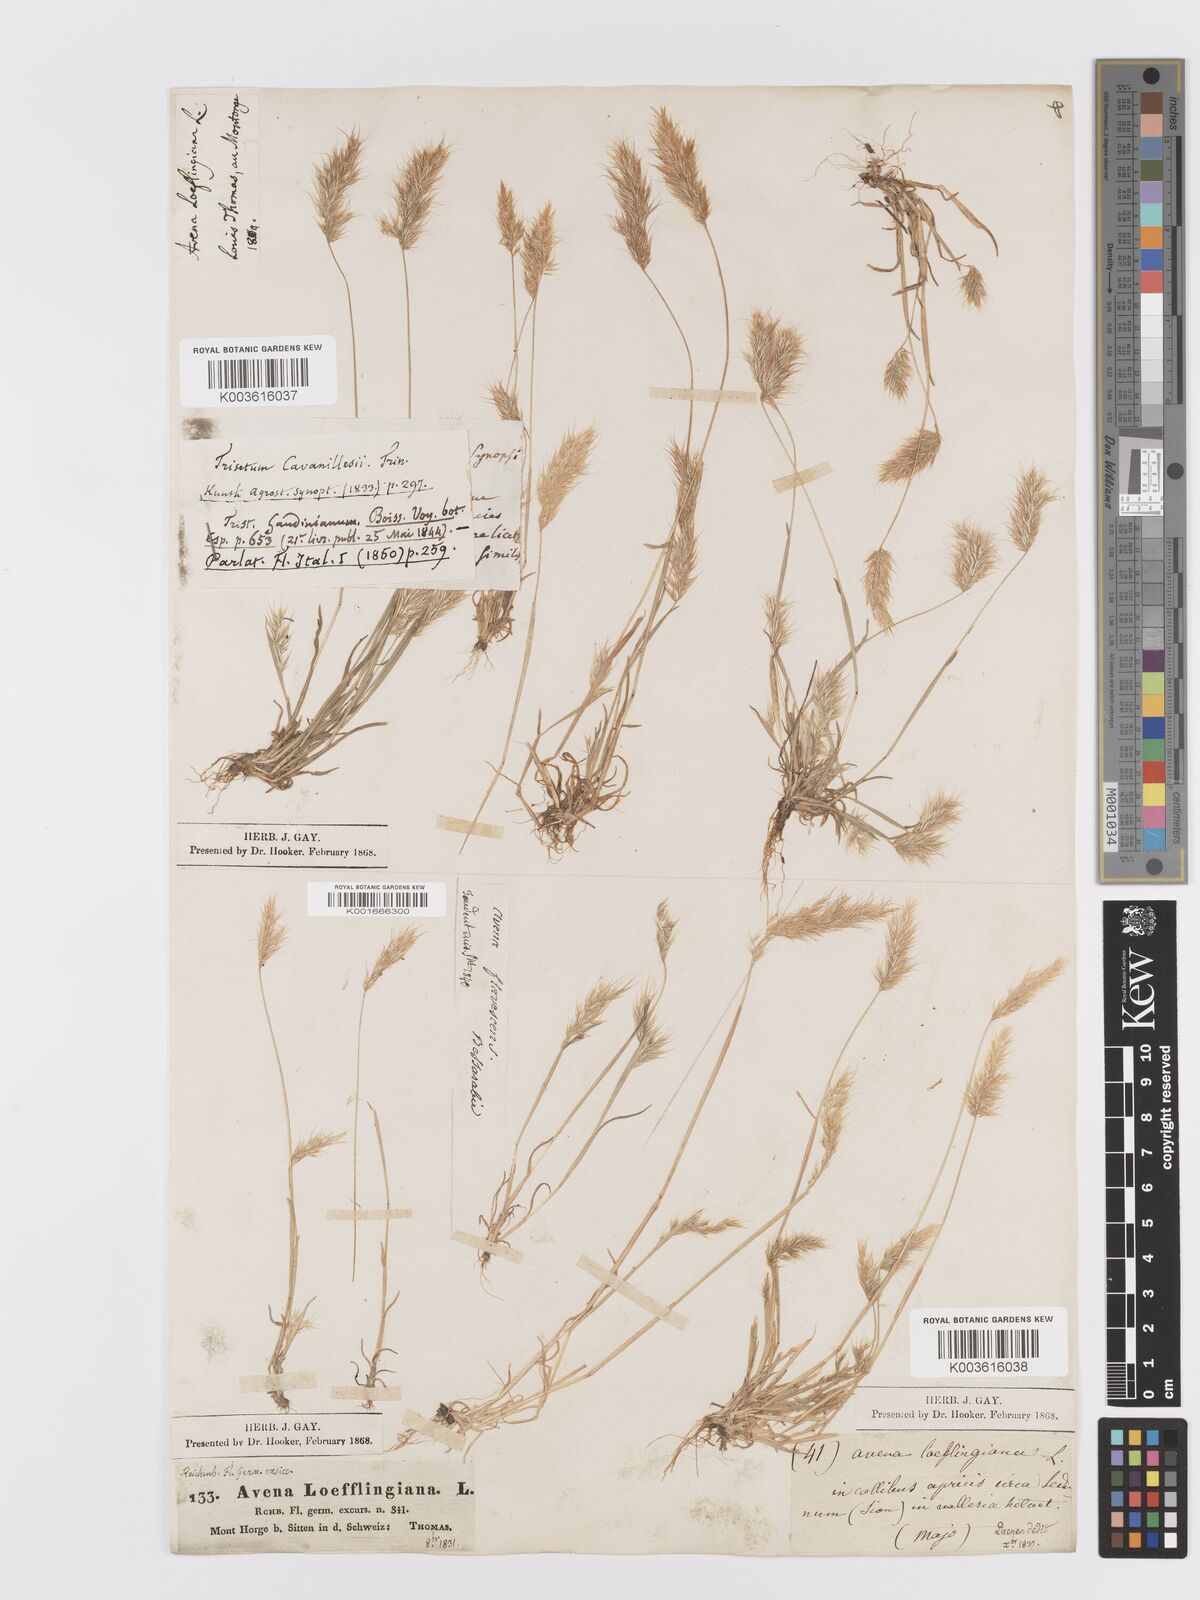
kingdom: Plantae
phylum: Tracheophyta
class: Liliopsida
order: Poales
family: Poaceae
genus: Trisetaria
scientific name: Trisetaria loeflingiana
